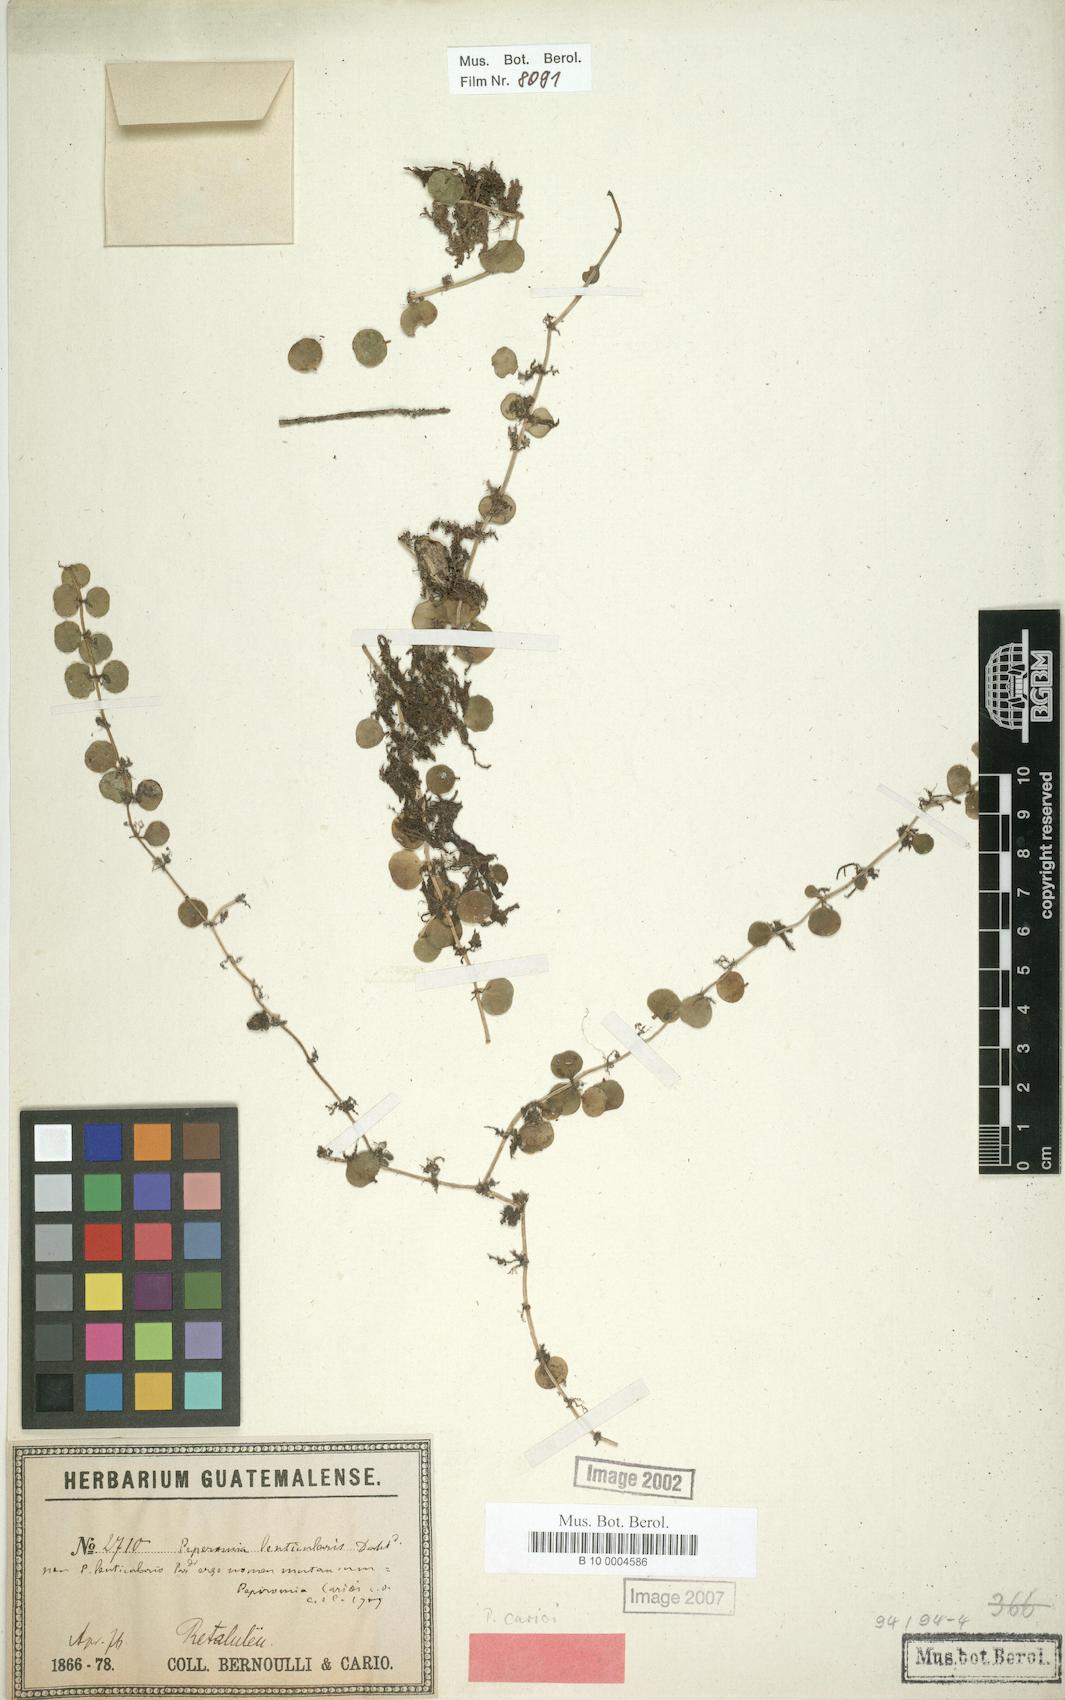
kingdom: Plantae
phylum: Tracheophyta
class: Magnoliopsida
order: Piperales
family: Piperaceae
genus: Peperomia
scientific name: Peperomia circinnata
